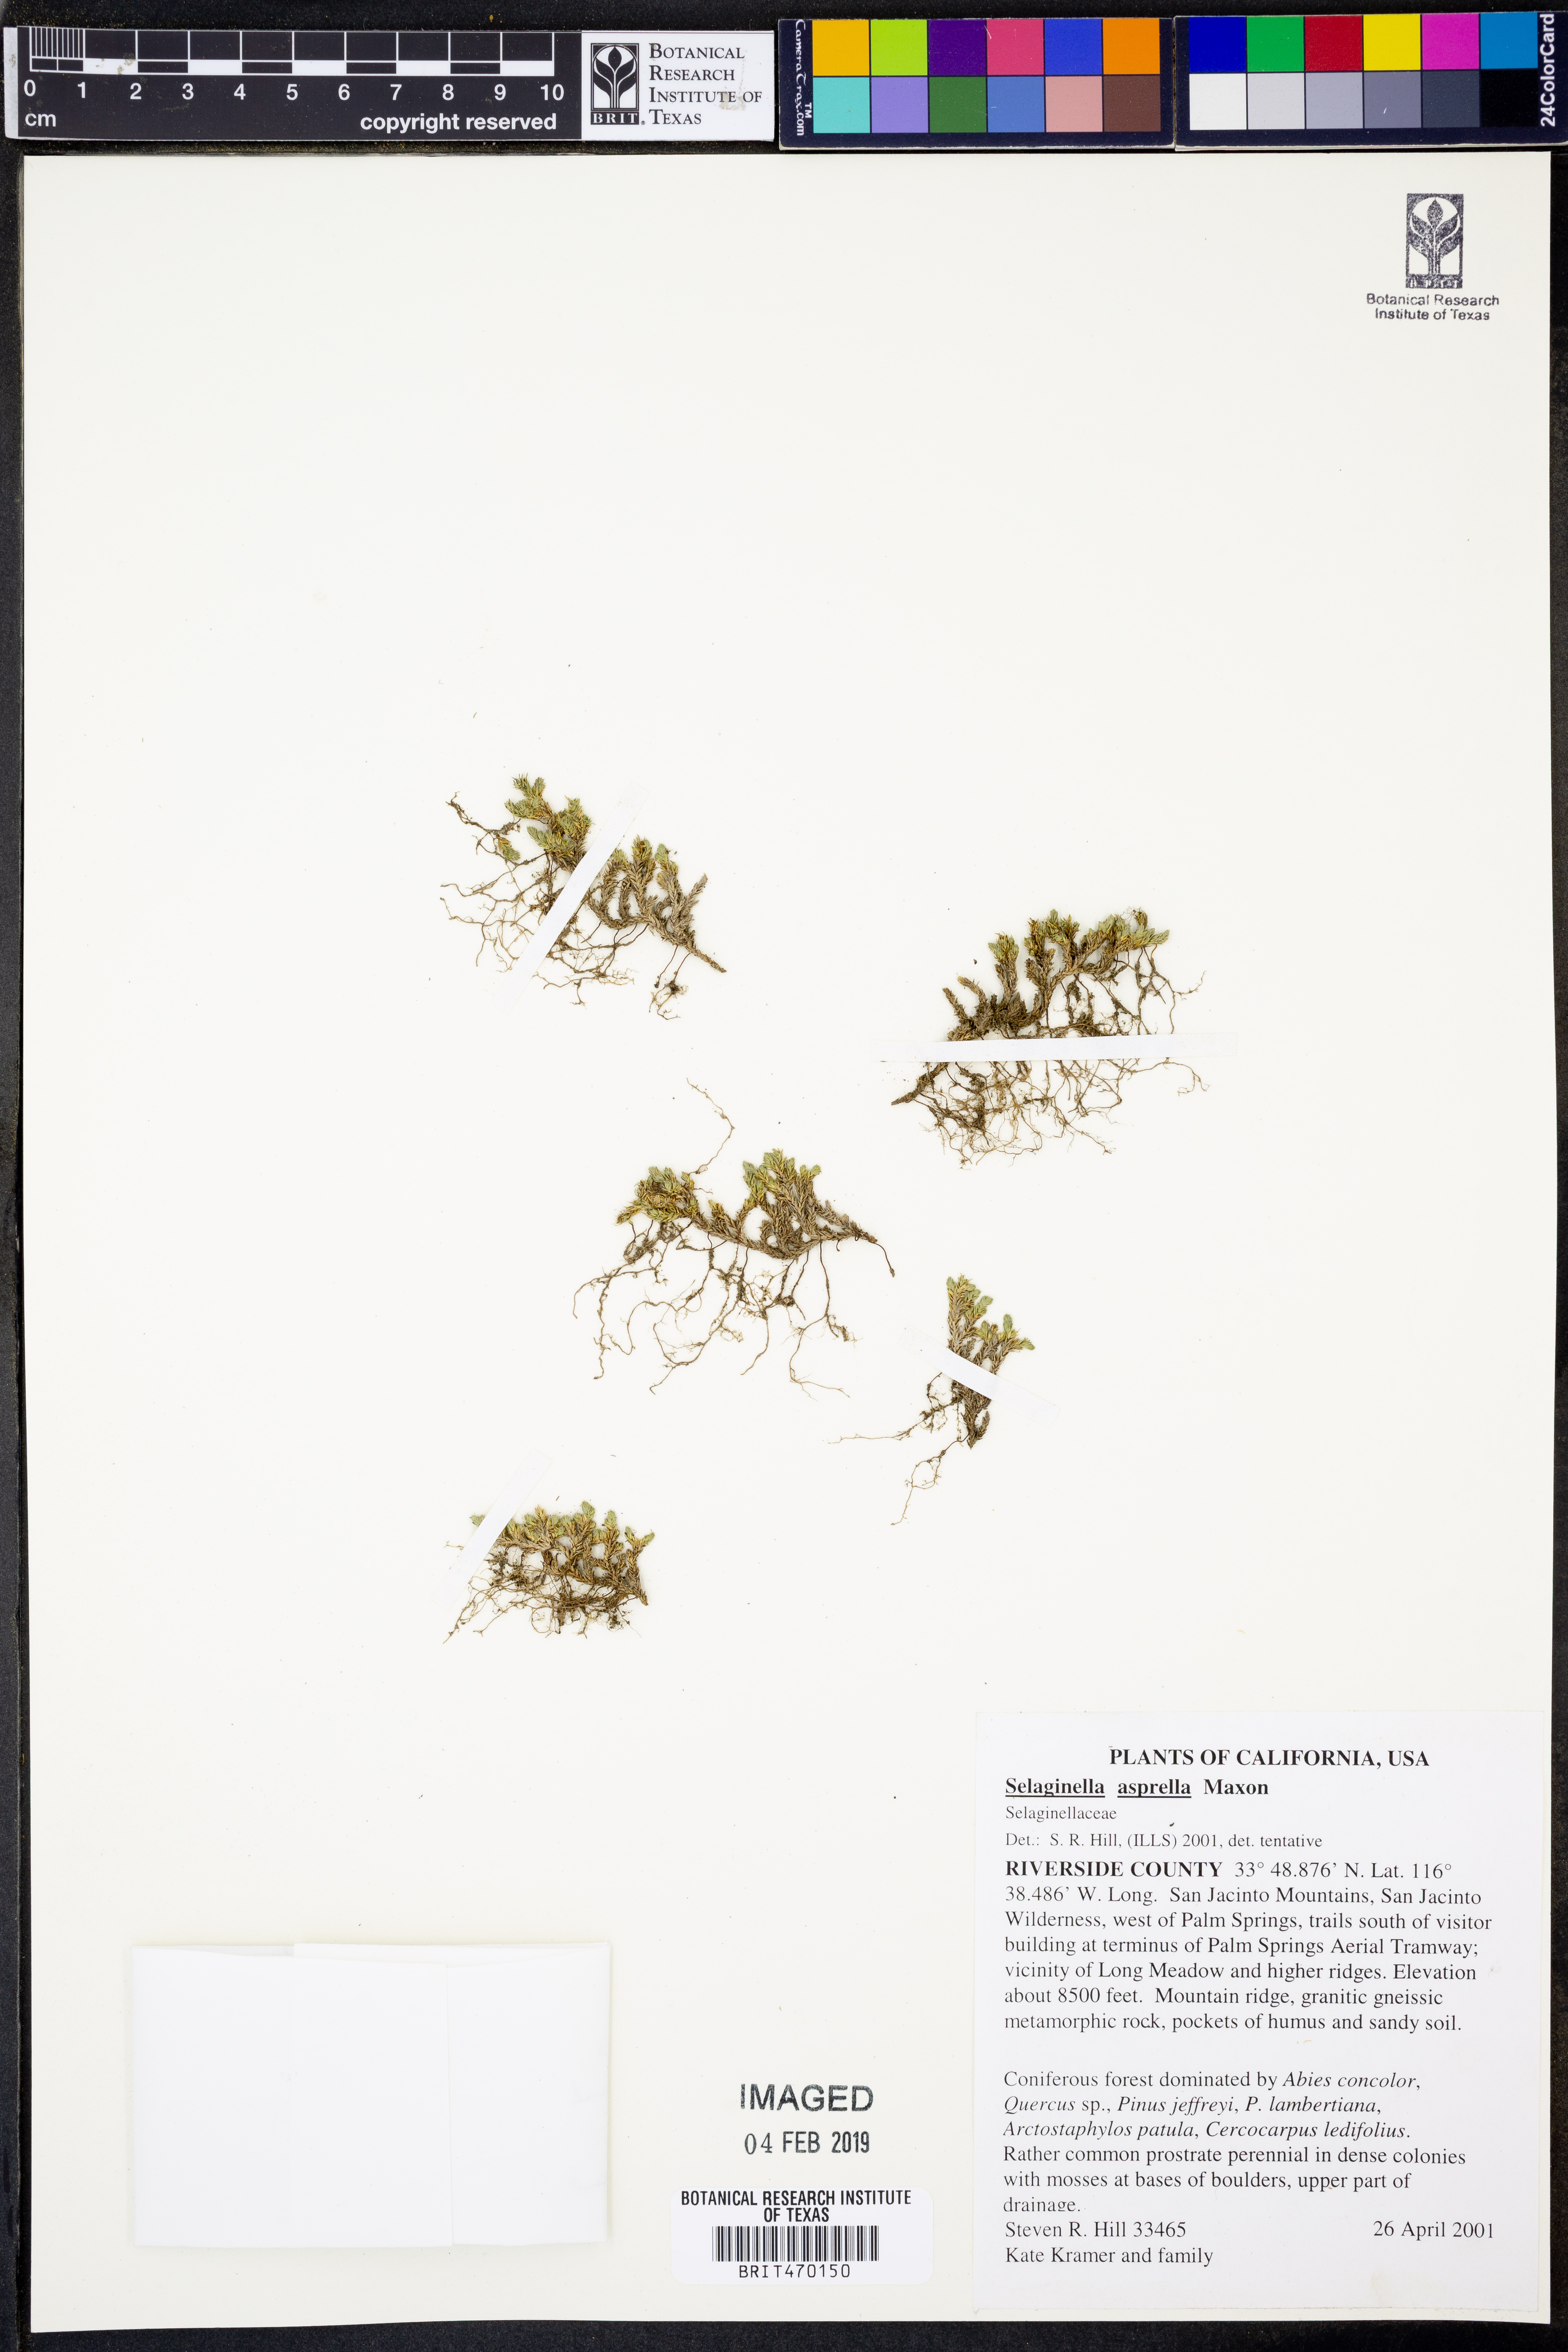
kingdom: Plantae
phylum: Tracheophyta
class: Lycopodiopsida
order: Selaginellales
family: Selaginellaceae
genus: Selaginella
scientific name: Selaginella asprella
